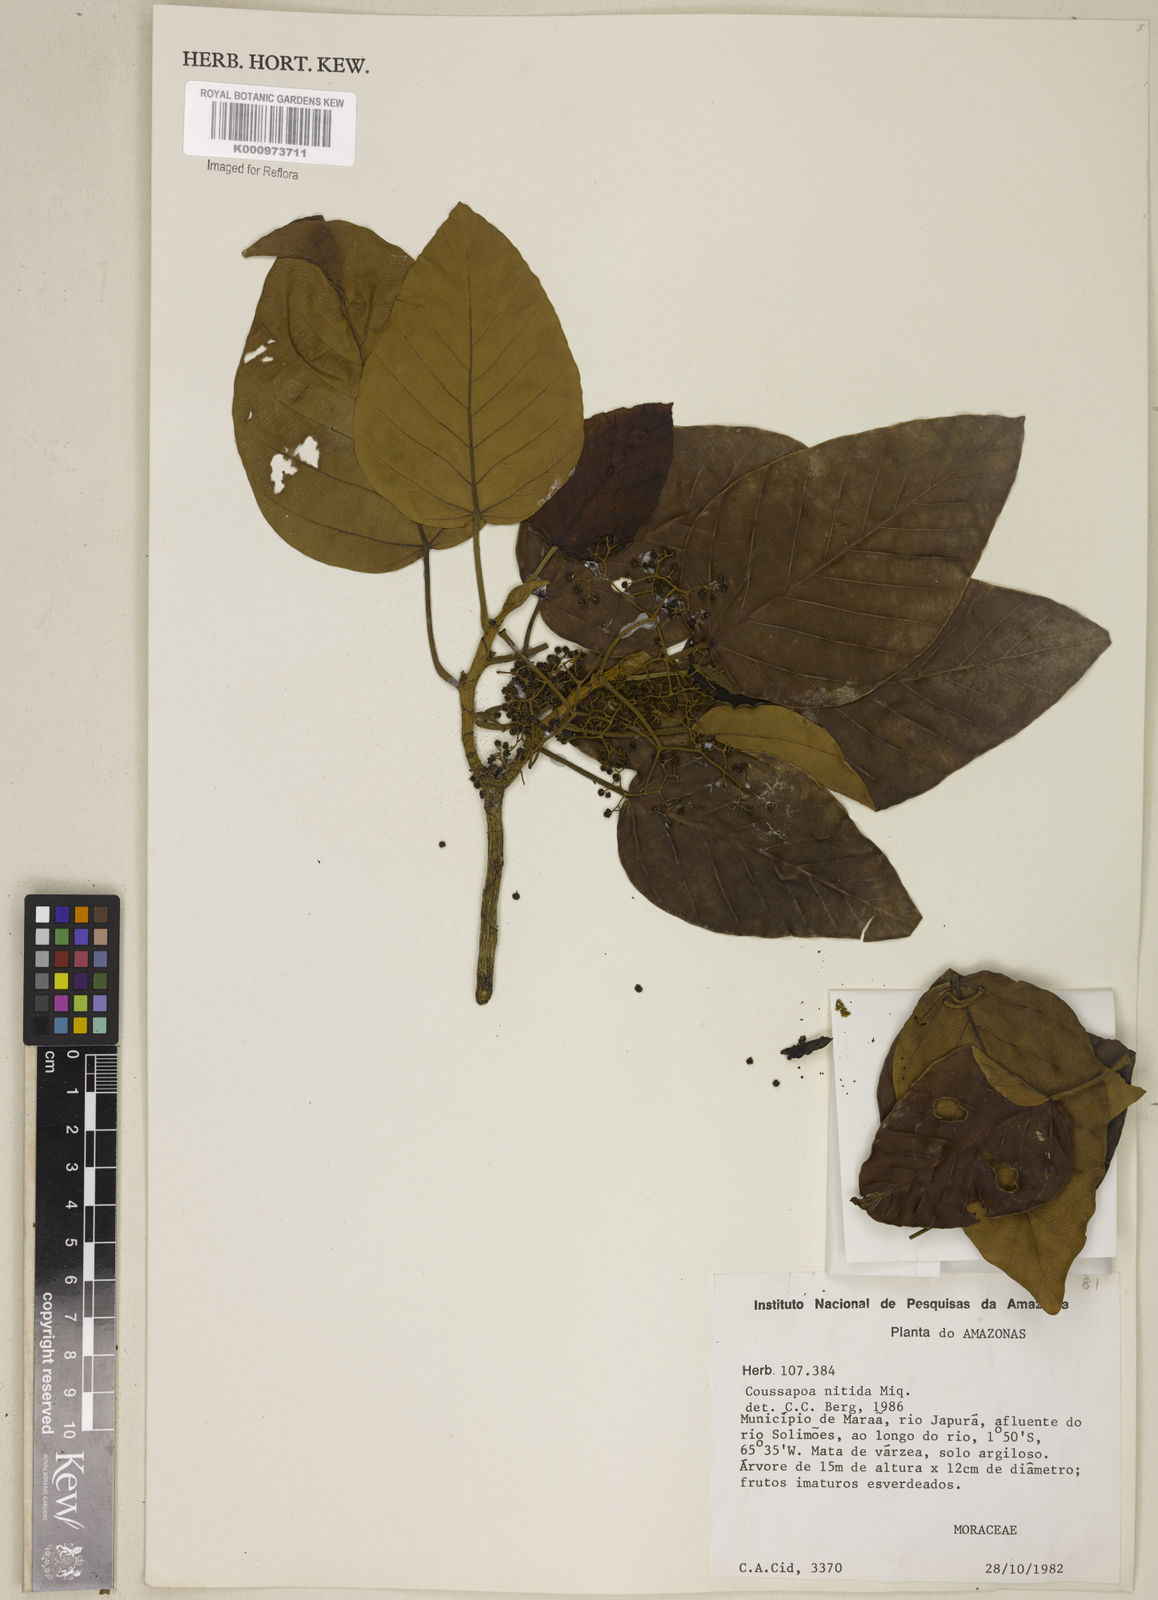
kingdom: Plantae
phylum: Tracheophyta
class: Magnoliopsida
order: Rosales
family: Urticaceae
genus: Coussapoa
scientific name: Coussapoa nitida
